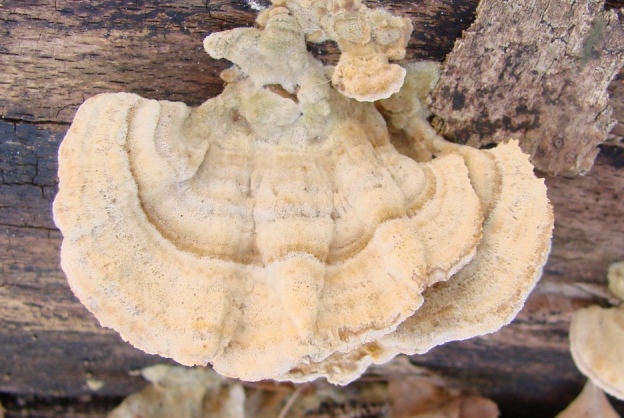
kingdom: Fungi
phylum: Basidiomycota
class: Agaricomycetes
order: Russulales
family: Stereaceae
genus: Stereum
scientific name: Stereum subtomentosum
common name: smuk lædersvamp
